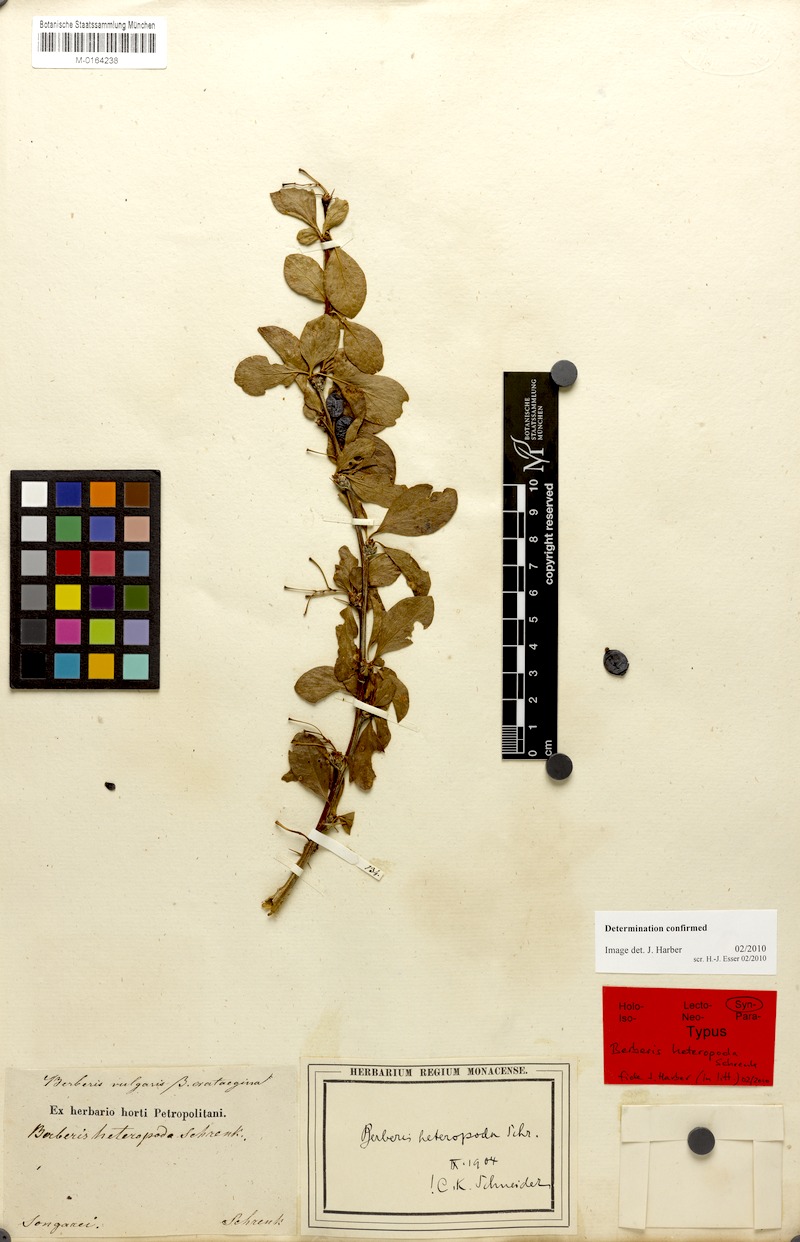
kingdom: Plantae
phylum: Tracheophyta
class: Magnoliopsida
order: Ranunculales
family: Berberidaceae
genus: Berberis
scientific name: Berberis heteropoda
